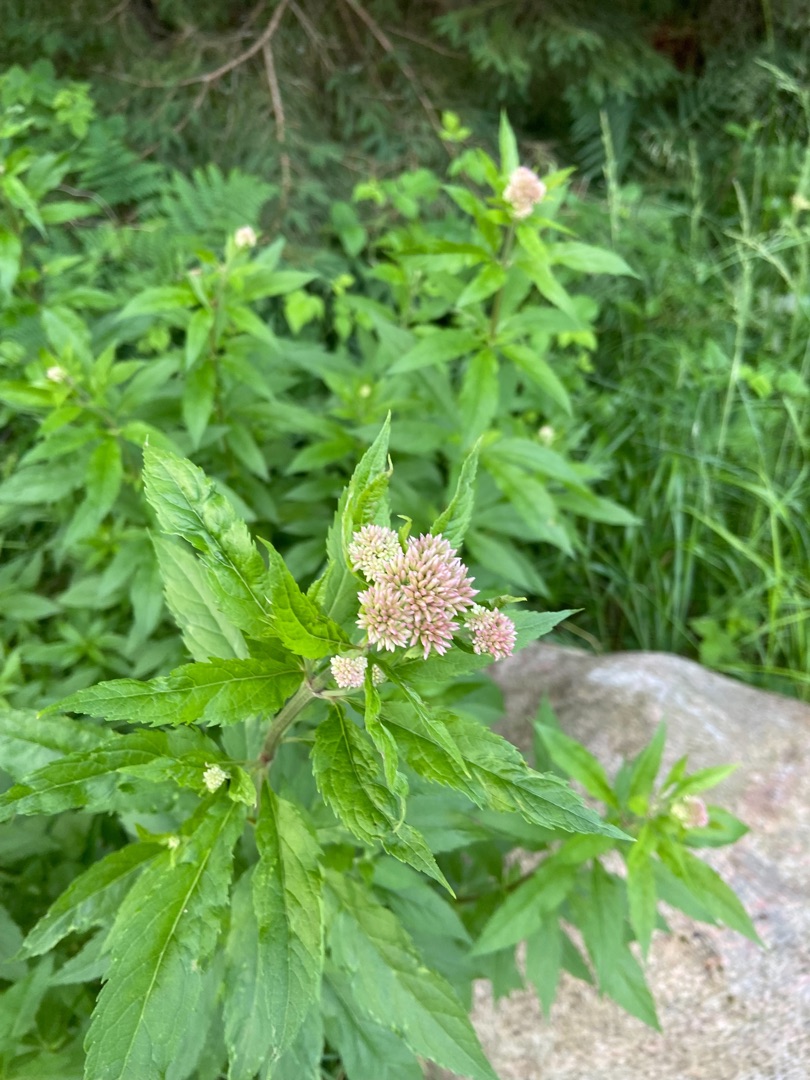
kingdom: Plantae
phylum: Tracheophyta
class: Magnoliopsida
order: Asterales
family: Asteraceae
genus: Eupatorium
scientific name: Eupatorium cannabinum
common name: Hjortetrøst
